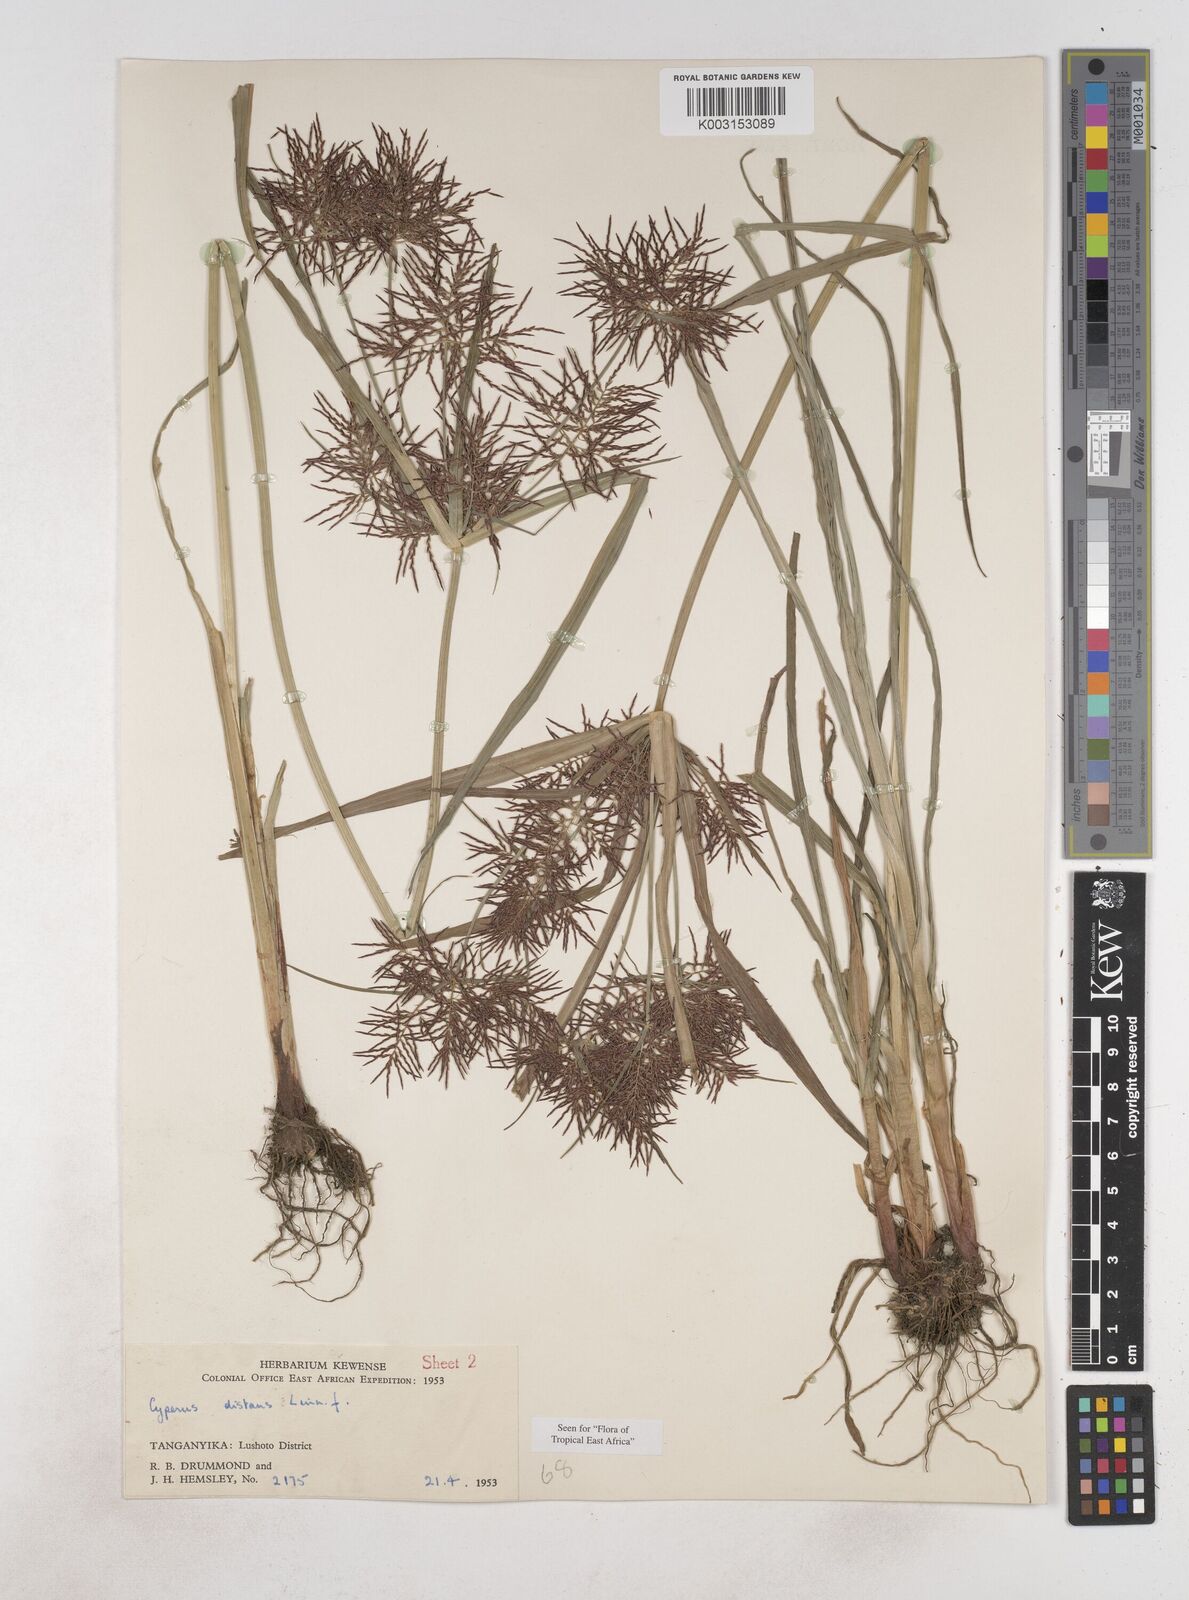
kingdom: Plantae
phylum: Tracheophyta
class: Liliopsida
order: Poales
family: Cyperaceae
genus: Cyperus
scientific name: Cyperus distans
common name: Slender cyperus
